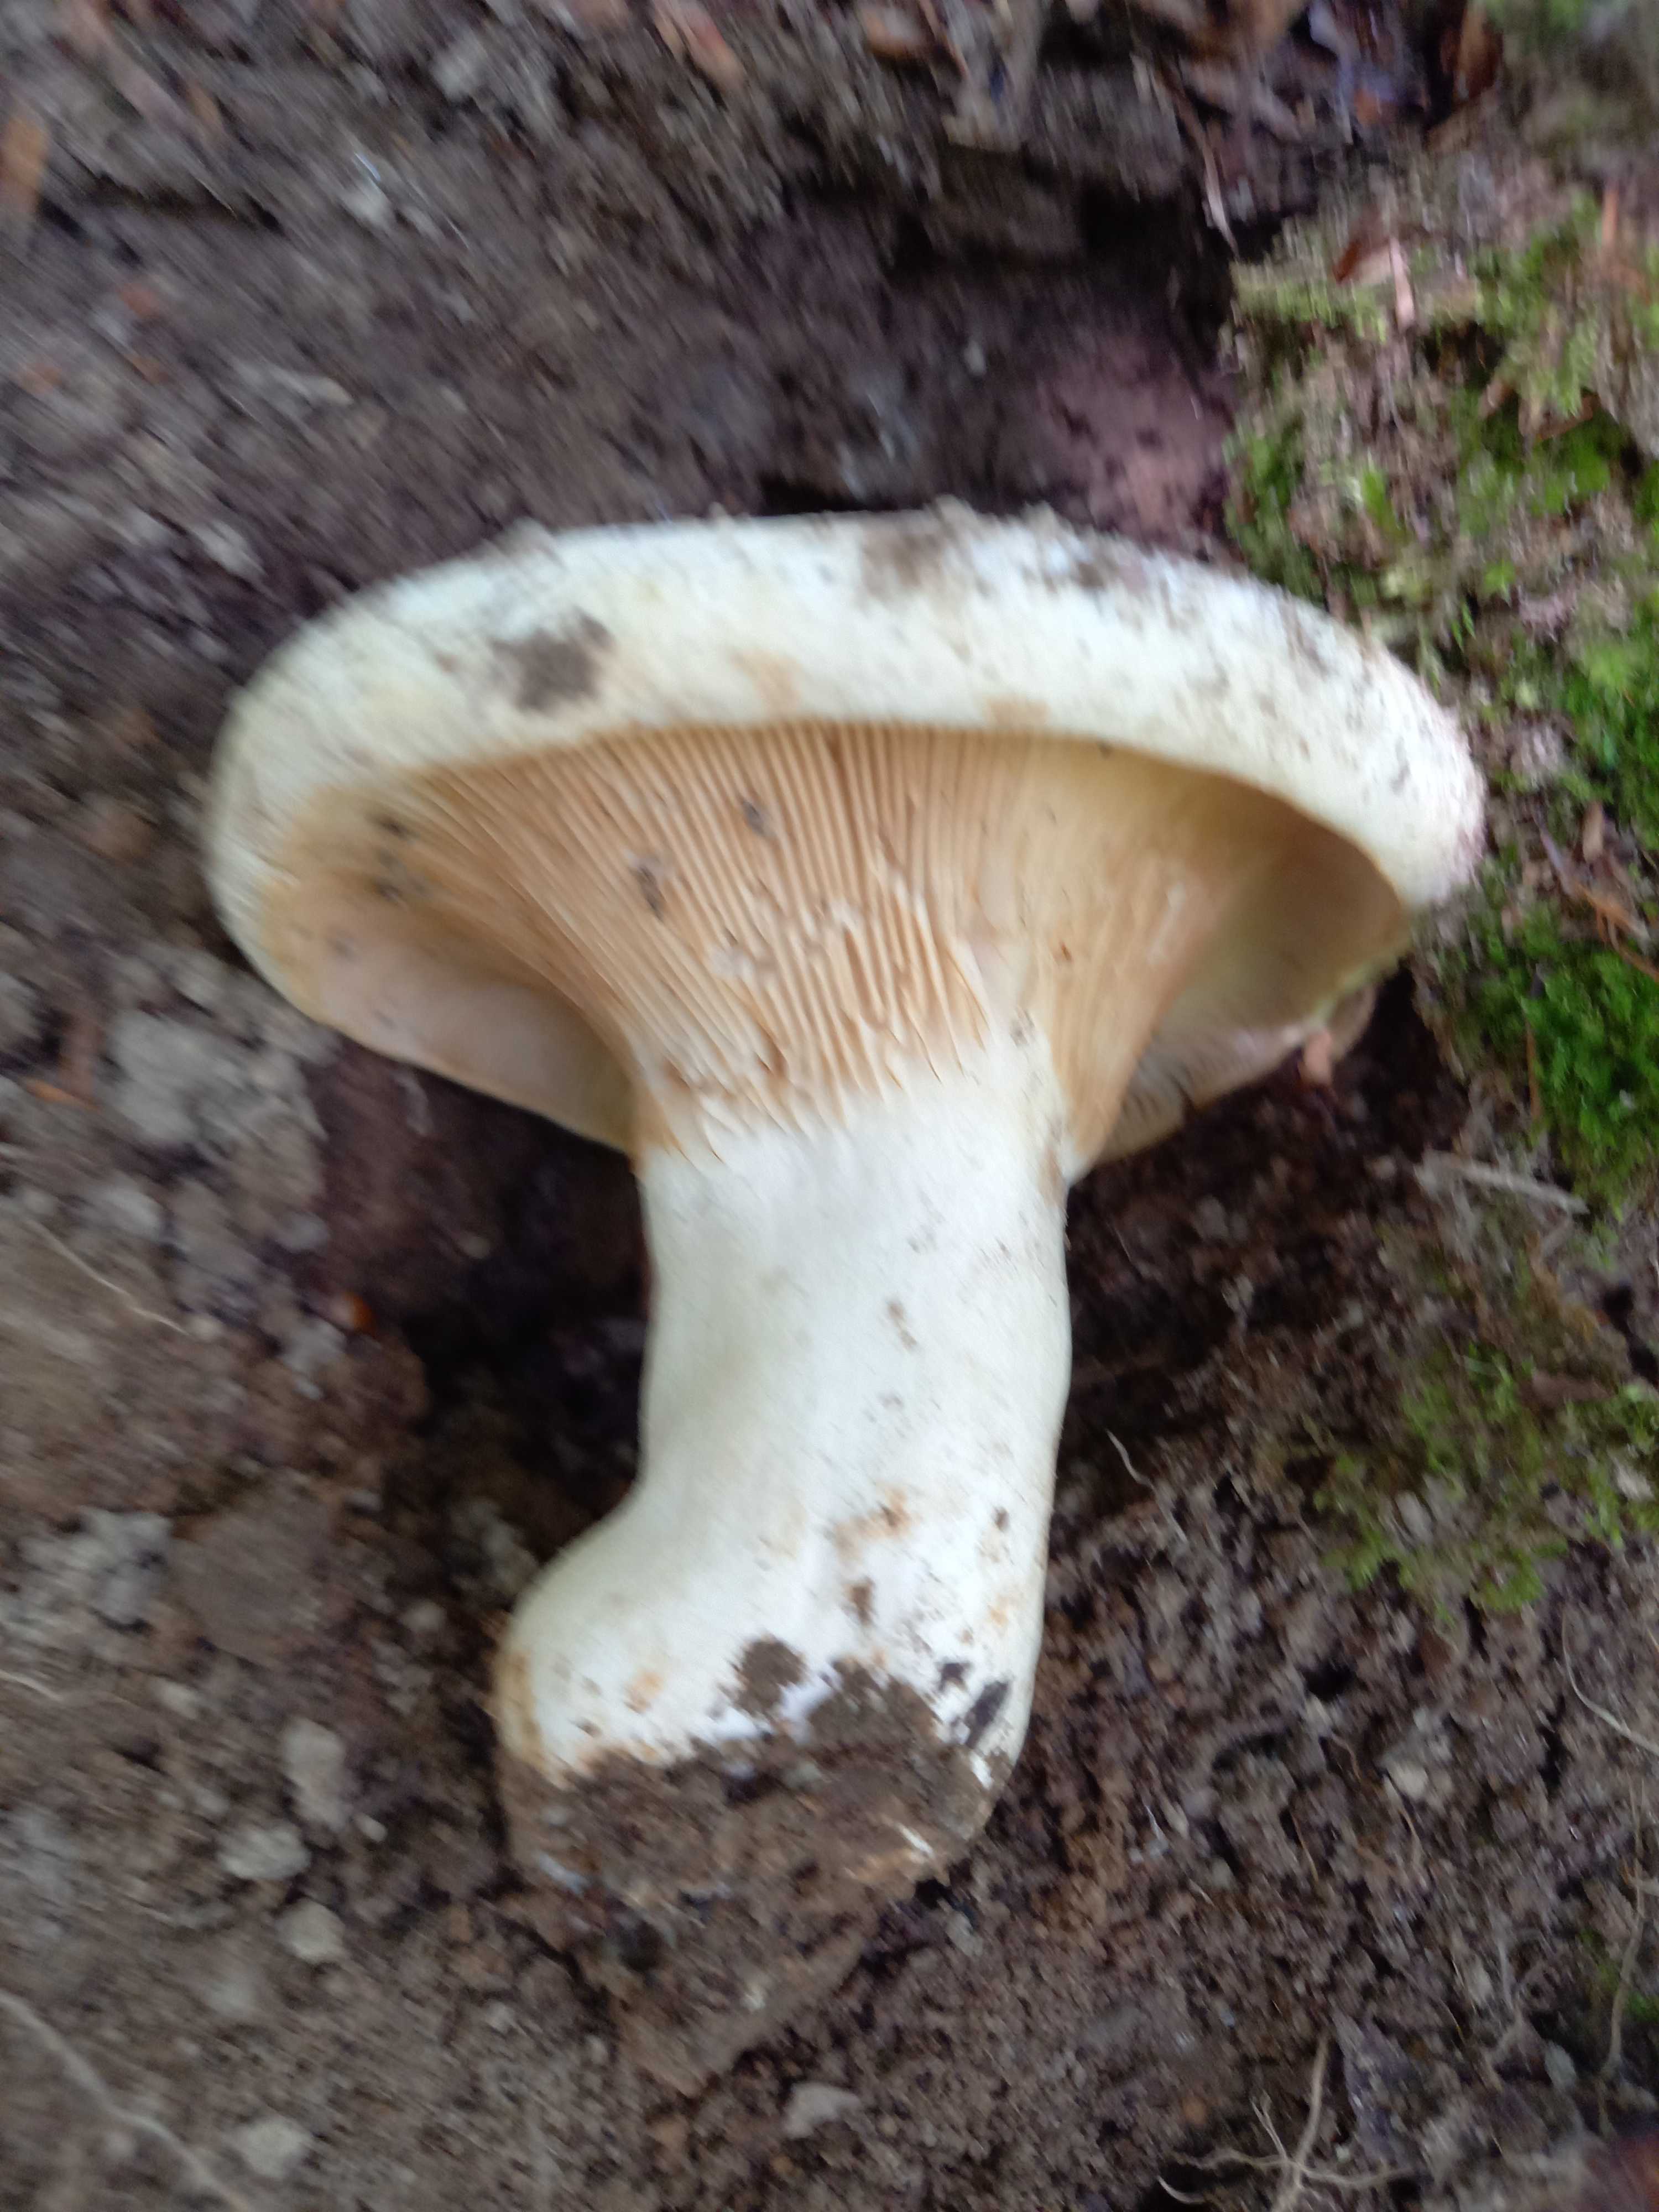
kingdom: Fungi
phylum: Basidiomycota
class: Agaricomycetes
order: Russulales
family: Russulaceae
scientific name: Russulaceae
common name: skørhatfamilien
